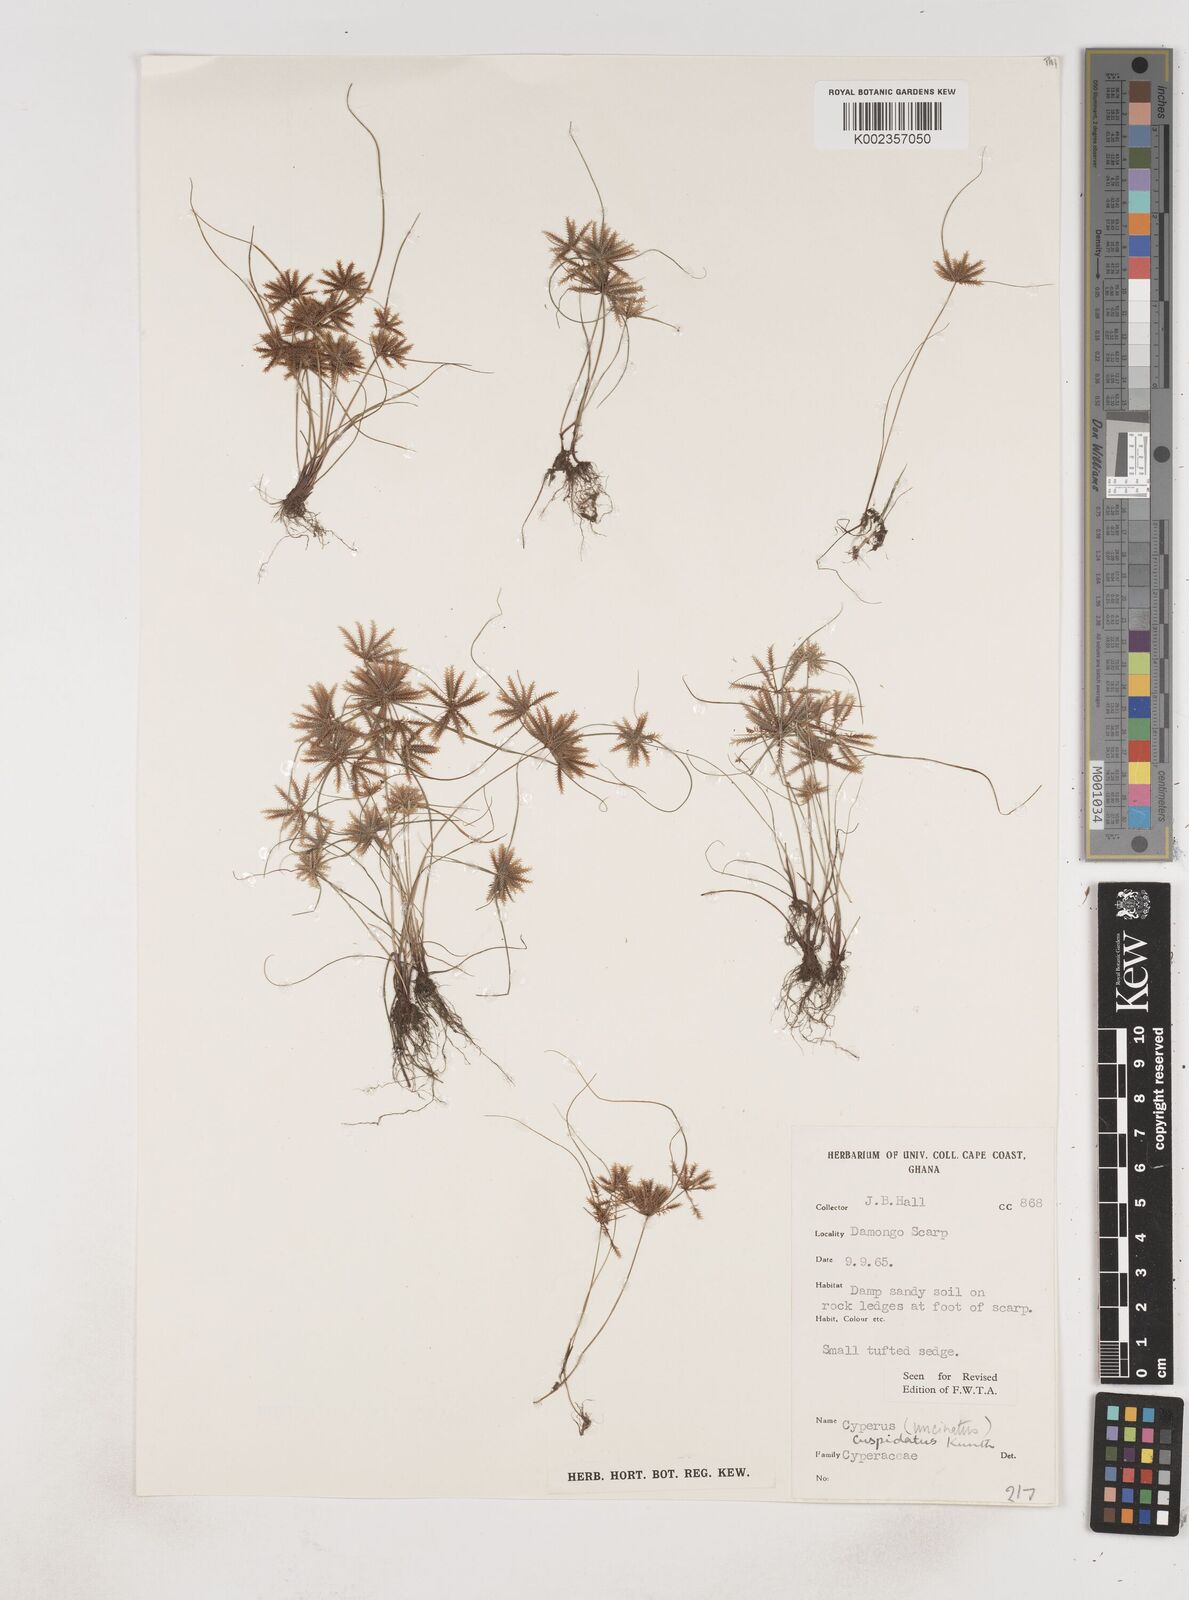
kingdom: Plantae
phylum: Tracheophyta
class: Liliopsida
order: Poales
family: Cyperaceae
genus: Cyperus
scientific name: Cyperus
